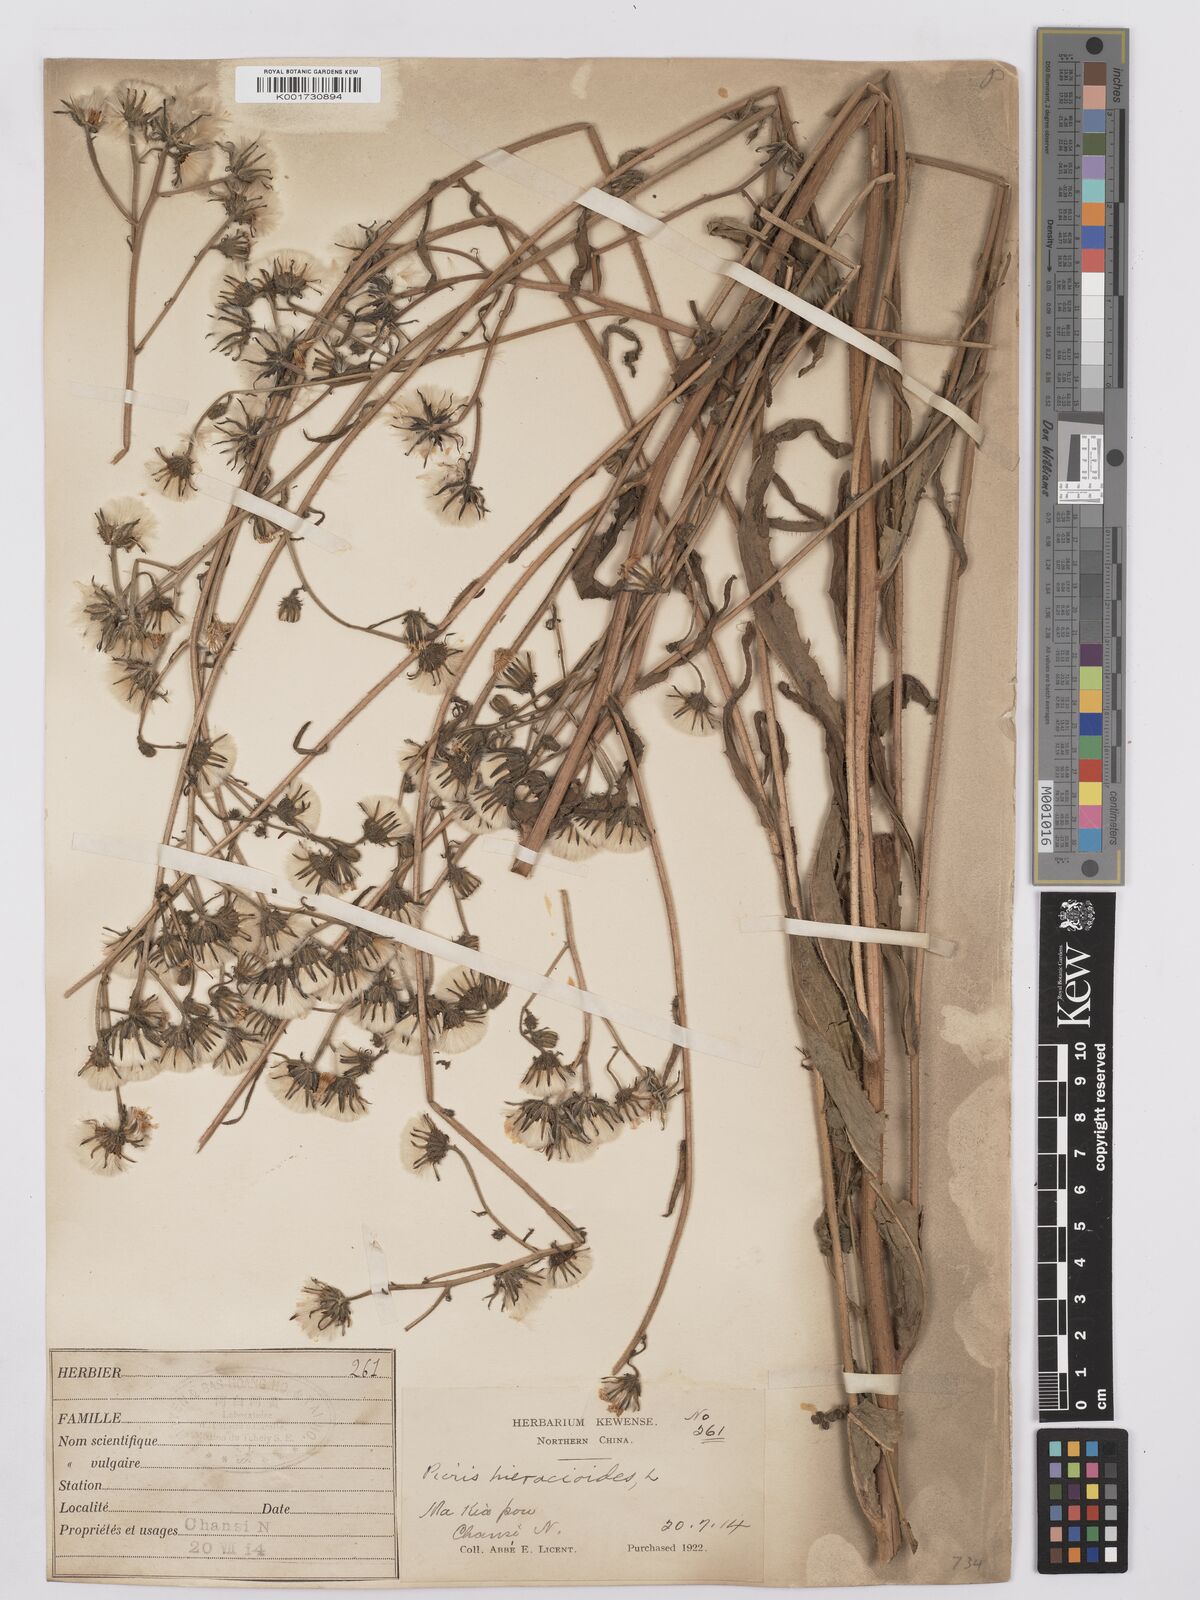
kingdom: Plantae
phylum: Tracheophyta
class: Magnoliopsida
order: Asterales
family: Asteraceae
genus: Picris
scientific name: Picris hieracioides
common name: Hawkweed oxtongue
